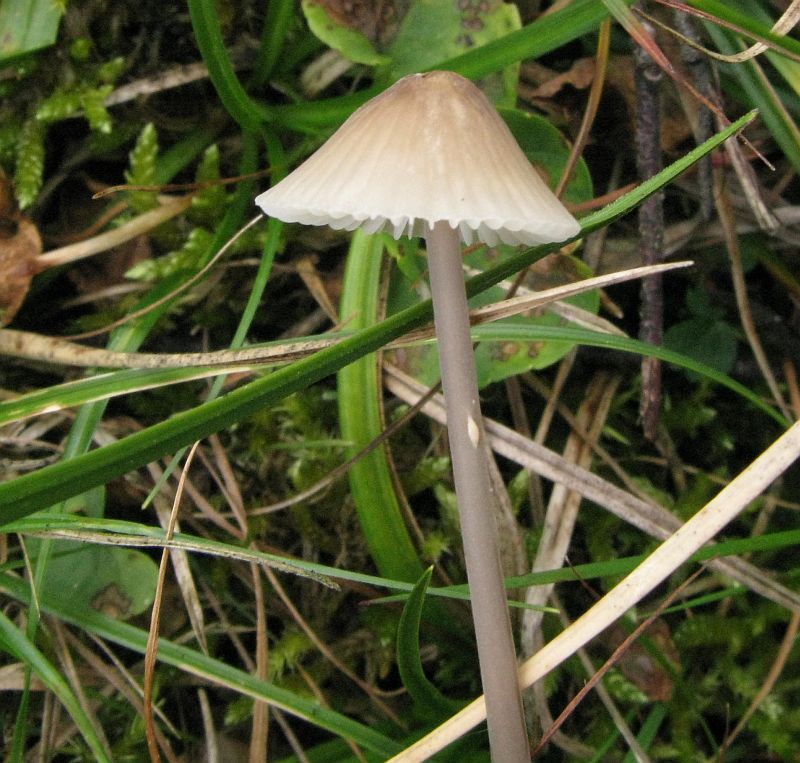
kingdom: Fungi
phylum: Basidiomycota
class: Agaricomycetes
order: Agaricales
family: Mycenaceae
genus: Mycena
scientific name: Mycena galopus
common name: hvidmælket huesvamp
